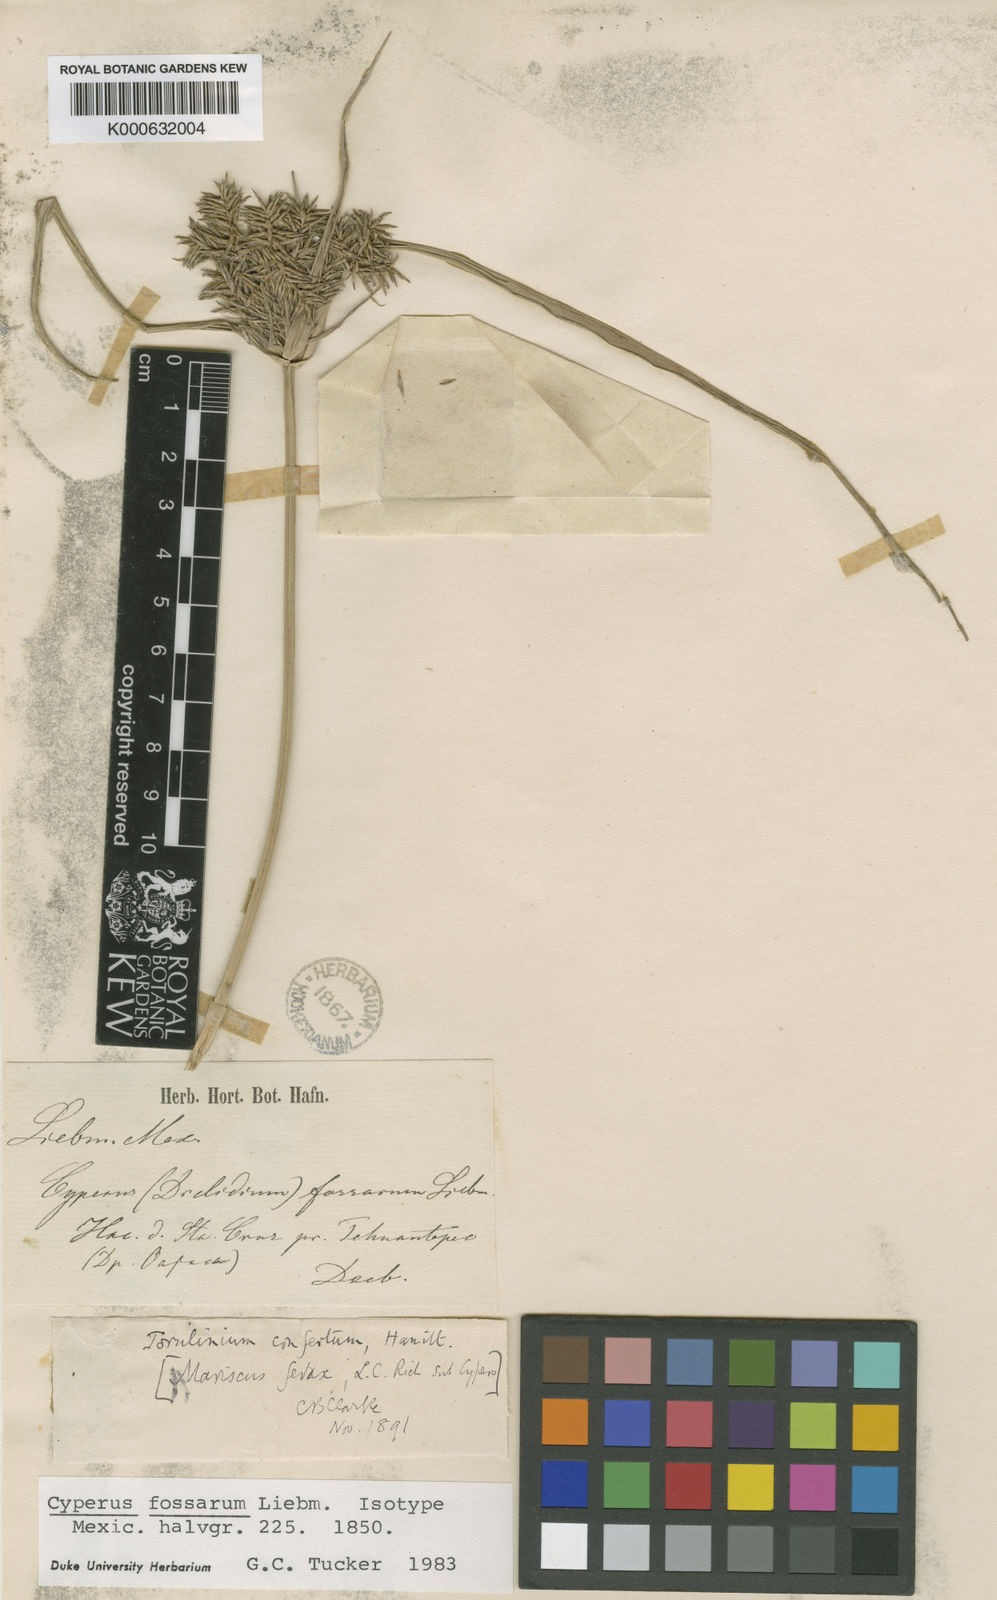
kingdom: Plantae
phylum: Tracheophyta
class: Liliopsida
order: Poales
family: Cyperaceae
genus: Cyperus
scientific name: Cyperus odoratus
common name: Fragrant flatsedge
